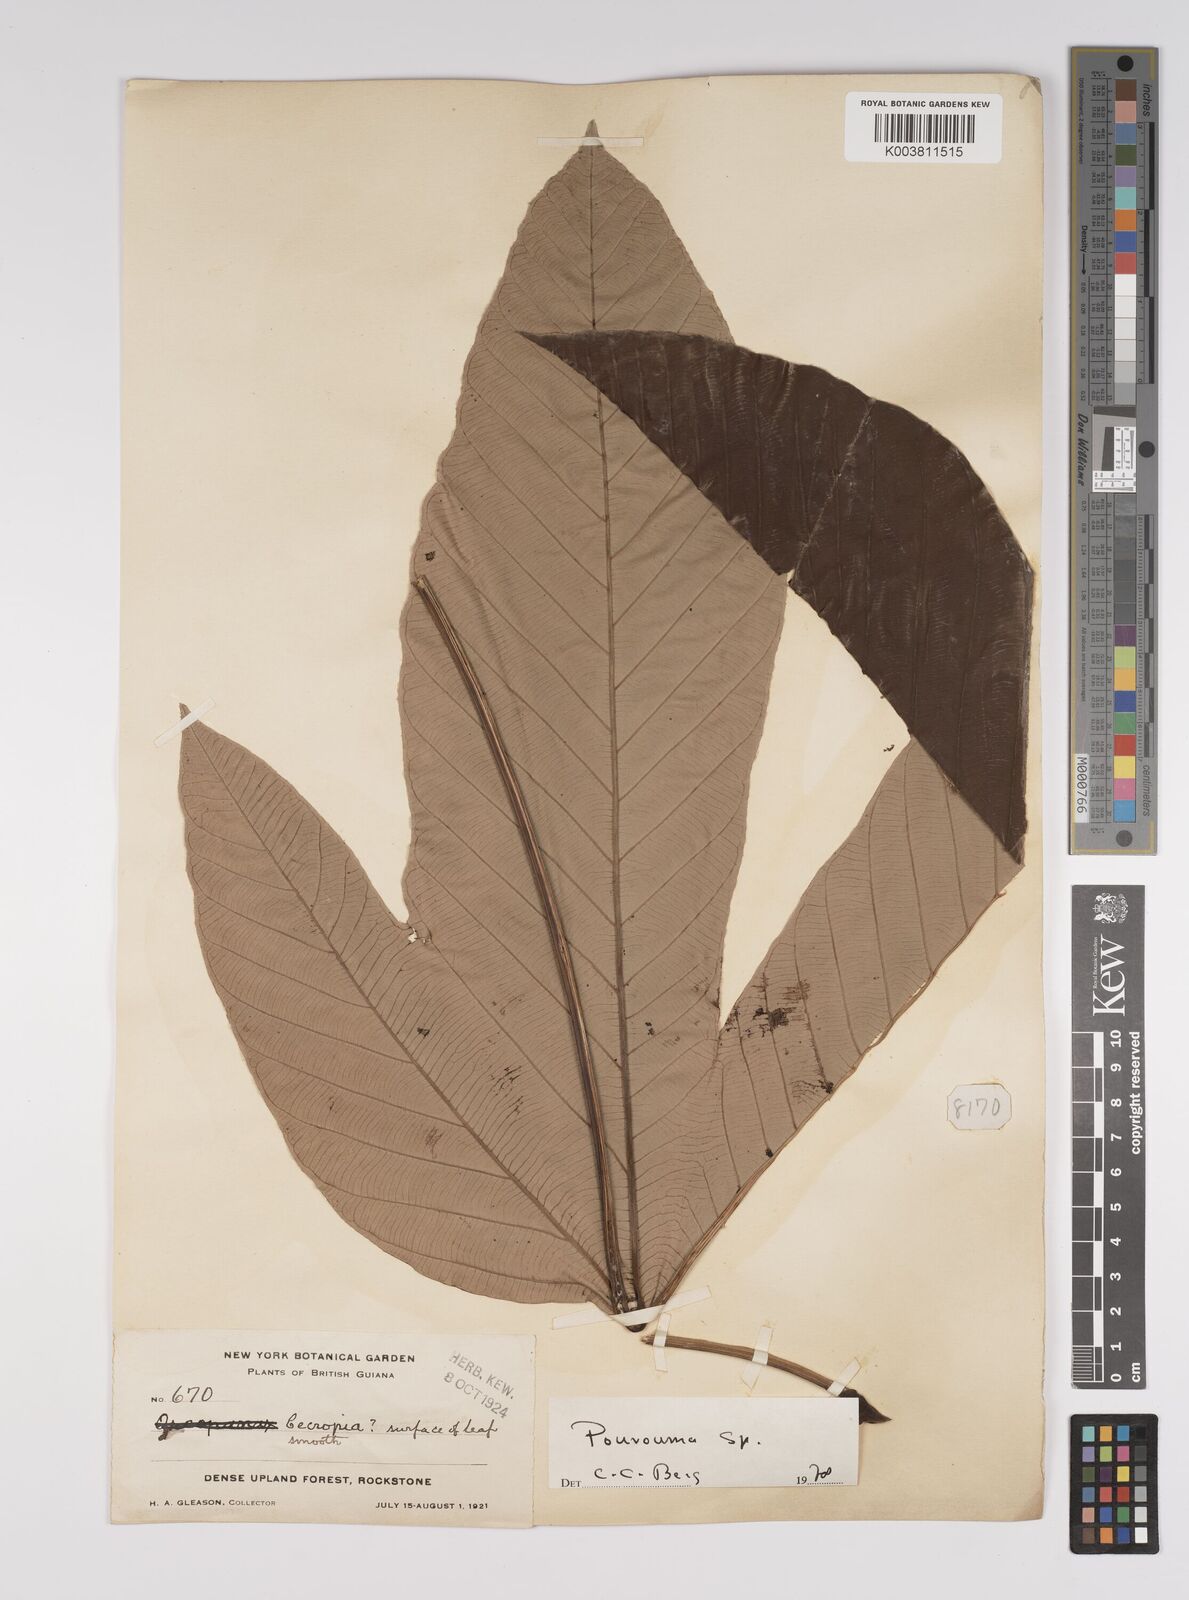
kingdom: Plantae
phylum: Tracheophyta
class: Magnoliopsida
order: Rosales
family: Urticaceae
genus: Pourouma
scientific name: Pourouma
